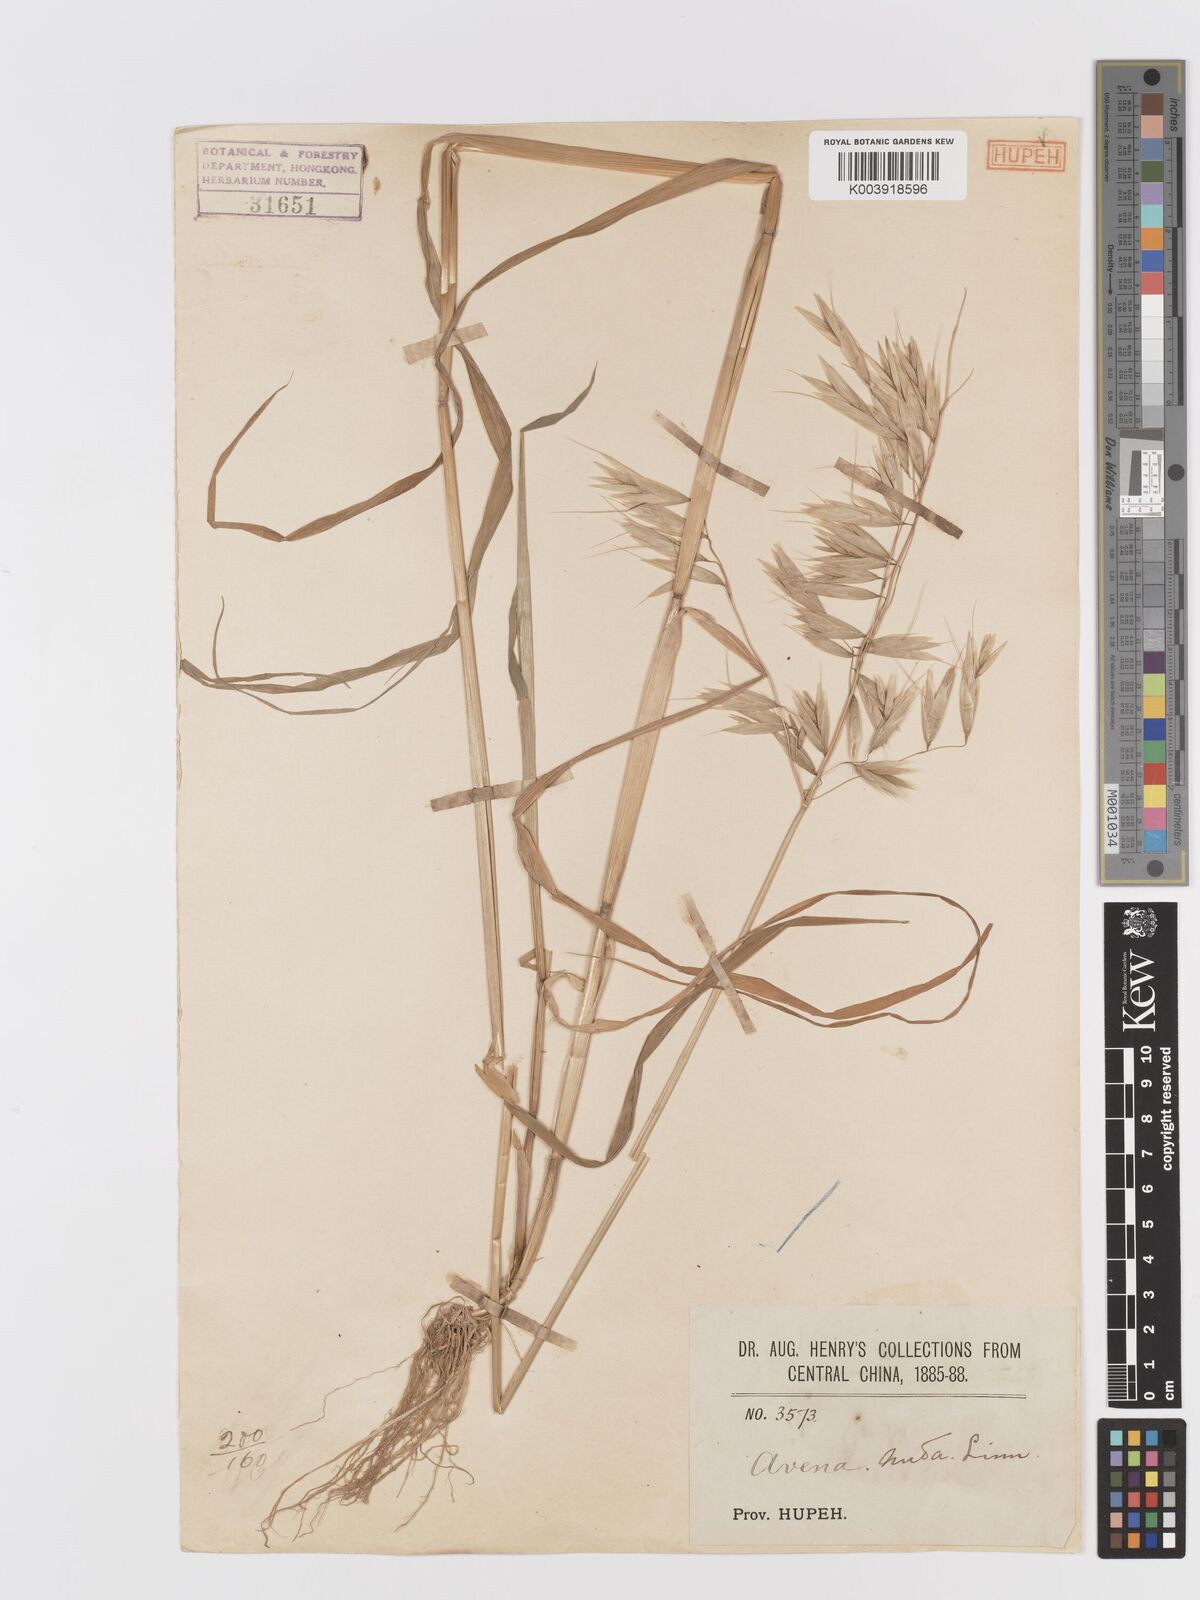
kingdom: Plantae
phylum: Tracheophyta
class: Liliopsida
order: Poales
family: Poaceae
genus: Avena
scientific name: Avena chinensis
